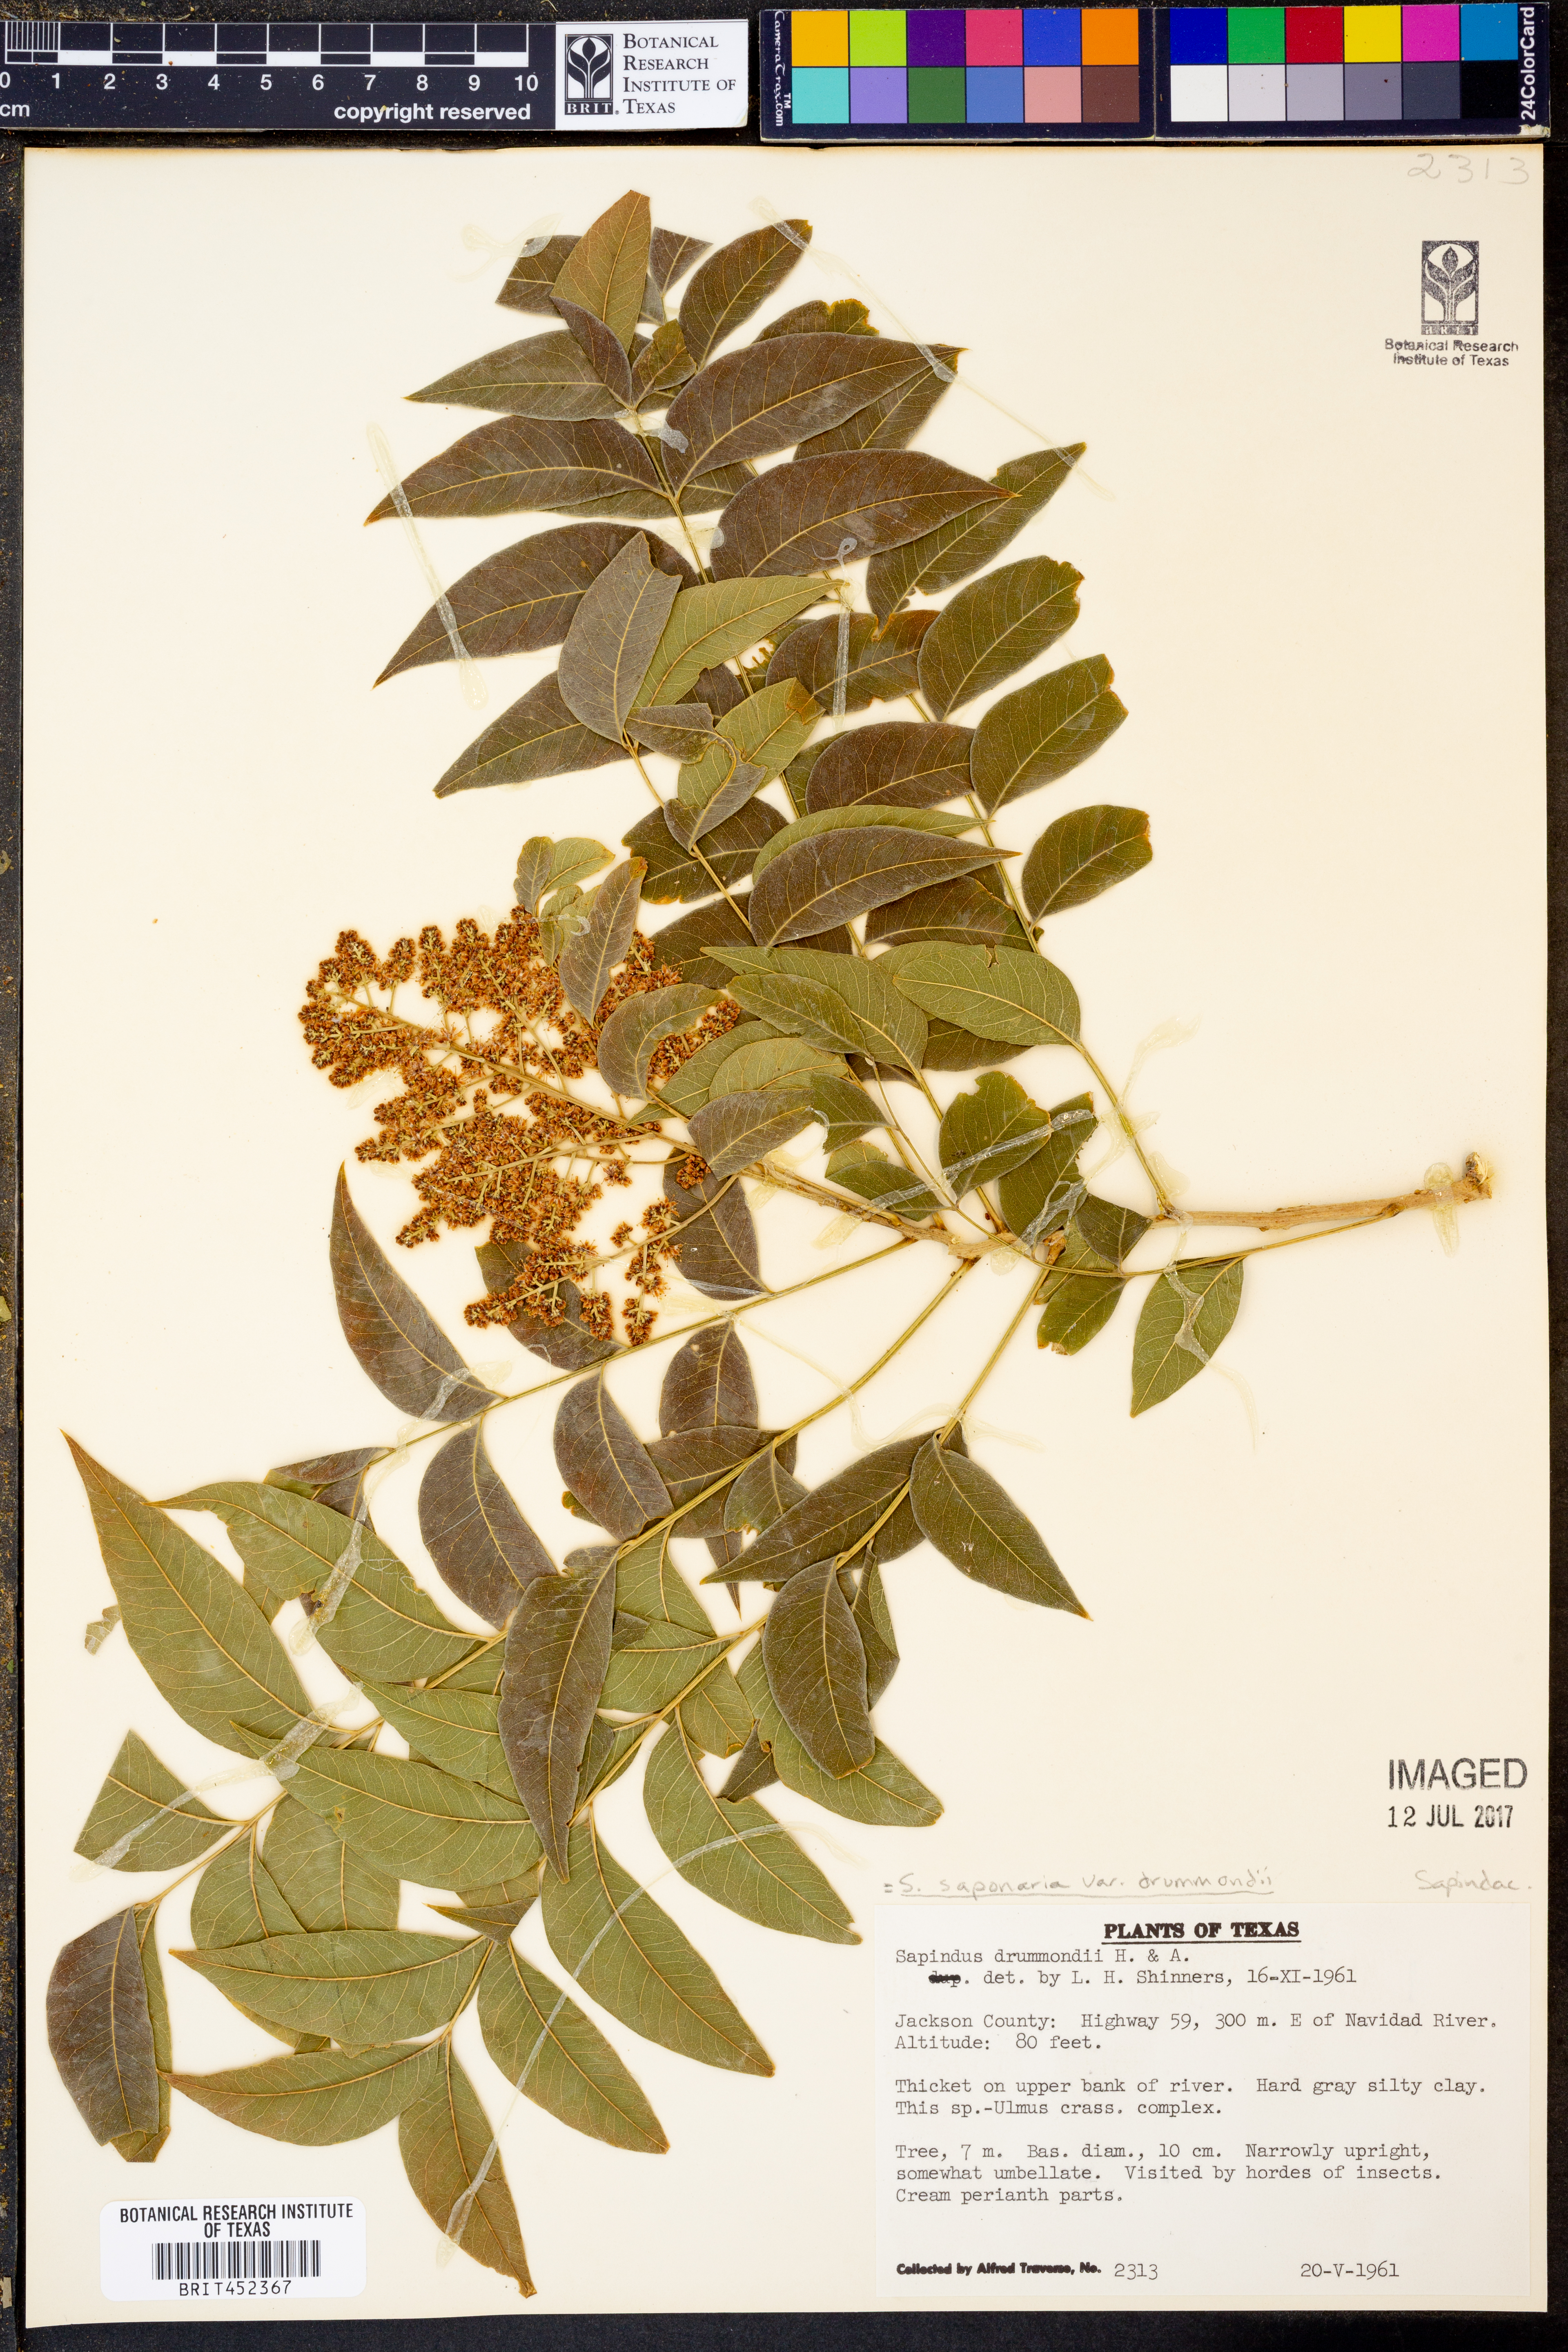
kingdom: Plantae
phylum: Tracheophyta
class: Magnoliopsida
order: Sapindales
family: Sapindaceae
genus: Sapindus
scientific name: Sapindus drummondii
